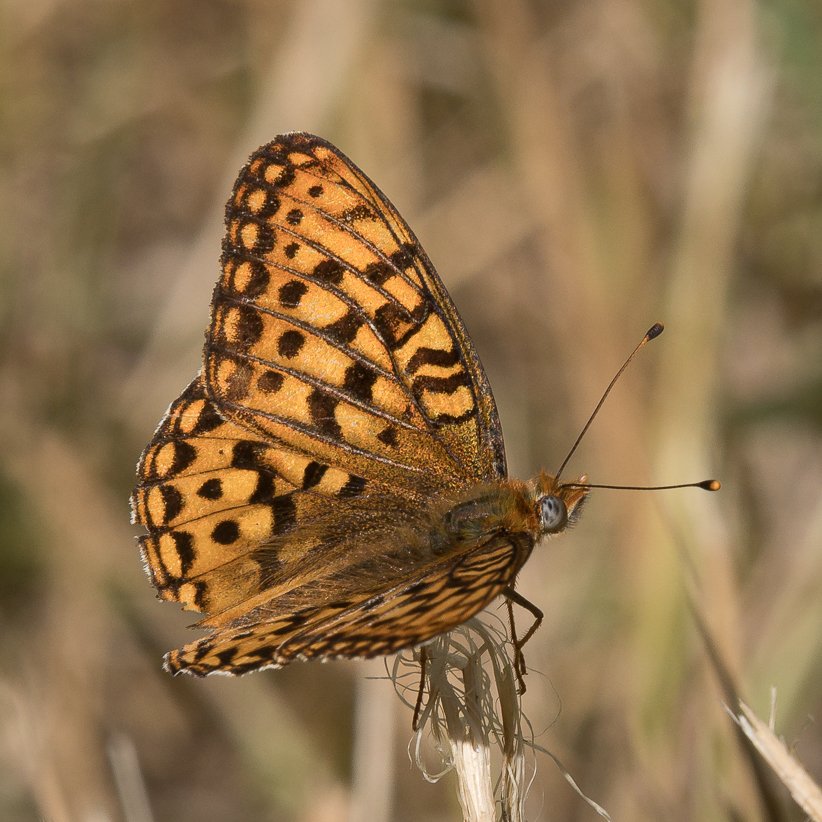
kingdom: Animalia
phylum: Arthropoda
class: Insecta
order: Lepidoptera
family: Nymphalidae
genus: Speyeria
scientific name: Speyeria atlantis
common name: Northwestern Fritillary
